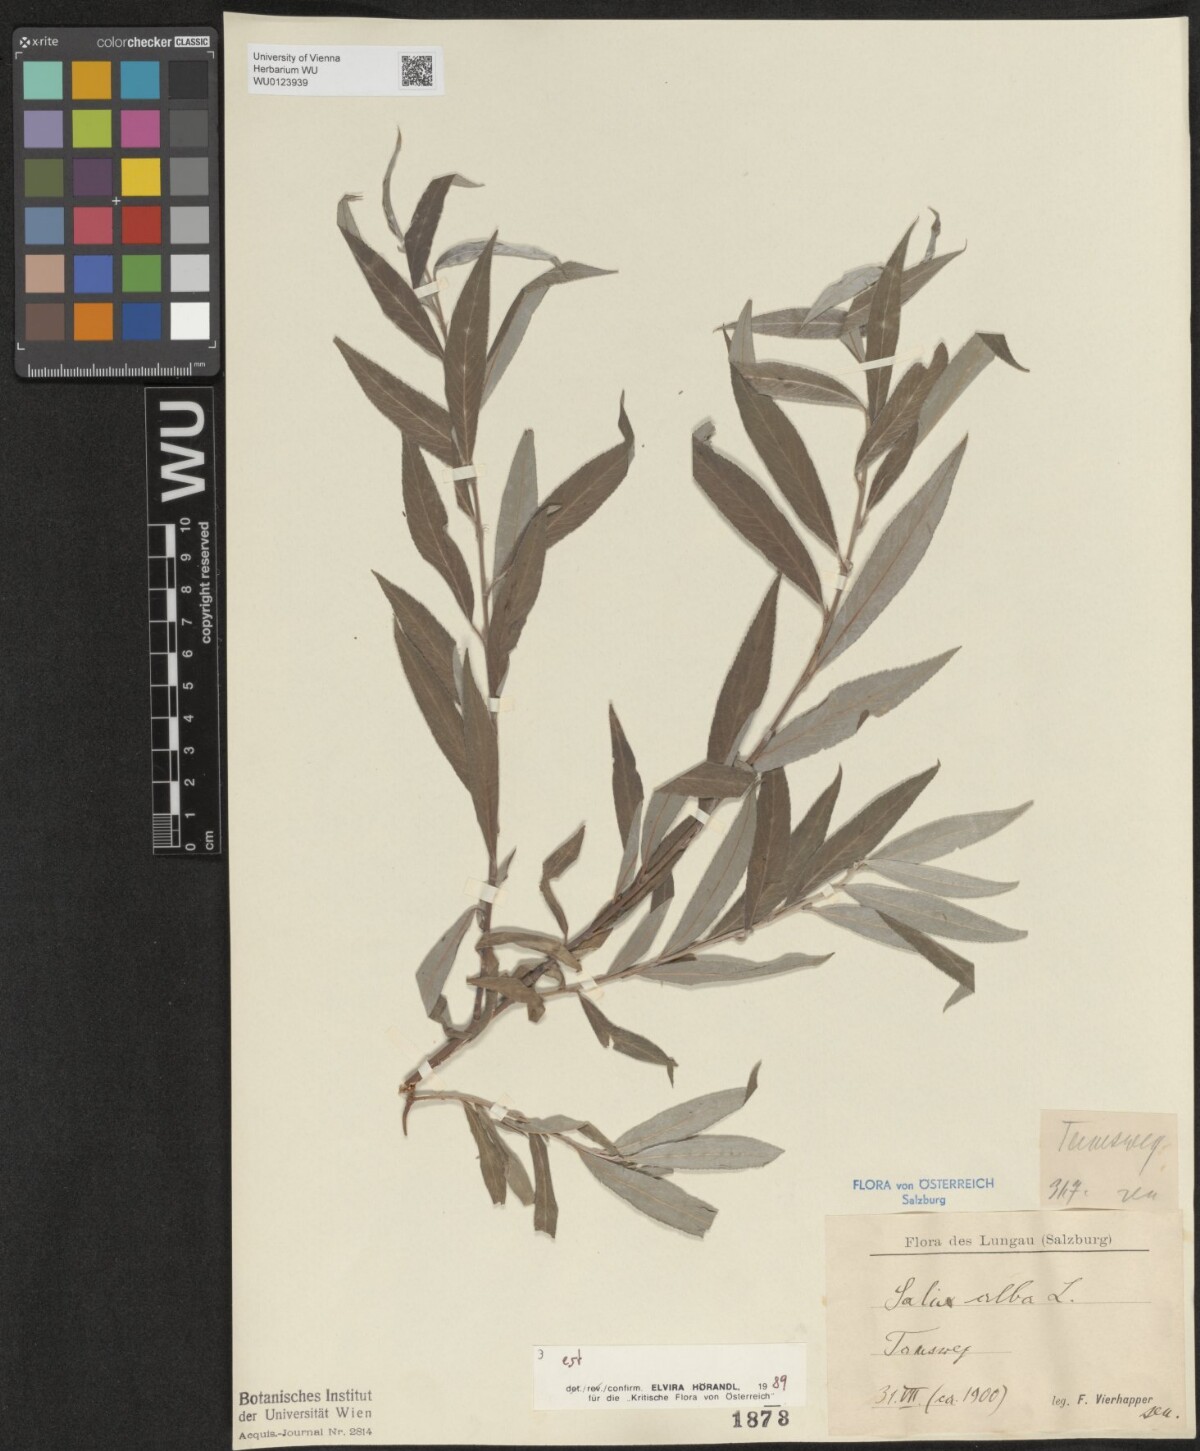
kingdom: Plantae
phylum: Tracheophyta
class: Magnoliopsida
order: Malpighiales
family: Salicaceae
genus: Salix
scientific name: Salix alba
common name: White willow
